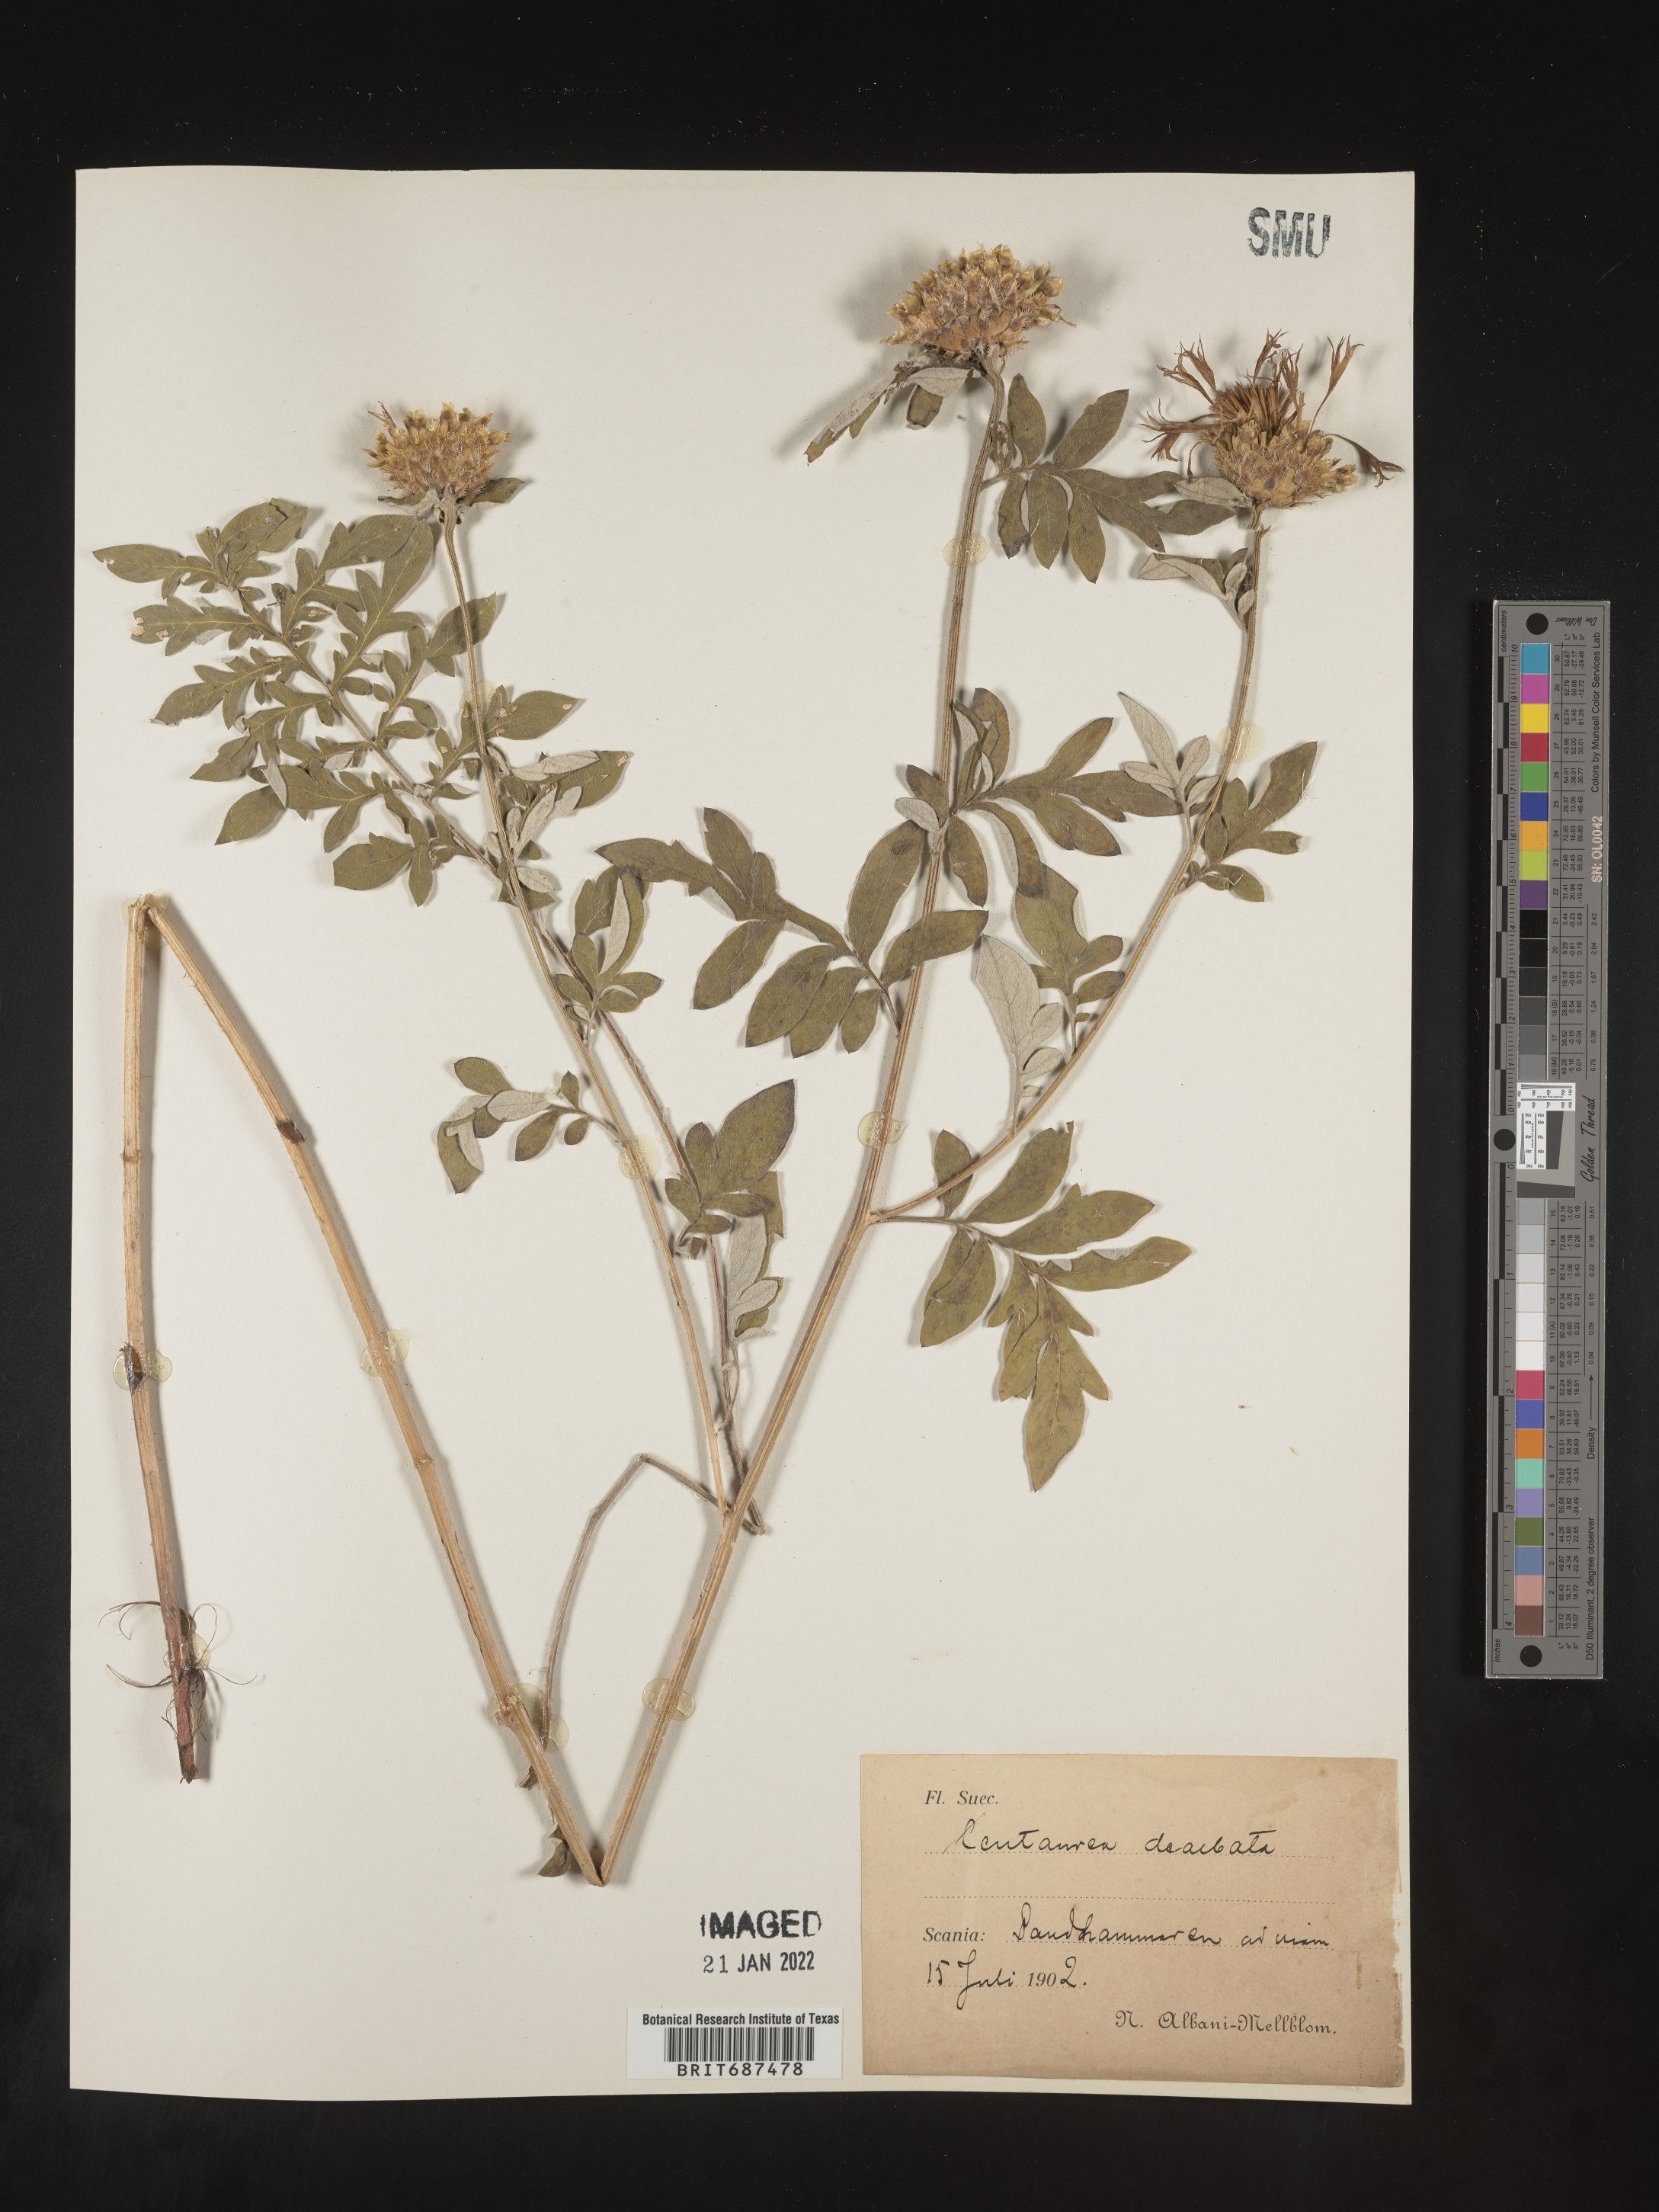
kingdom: Plantae
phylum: Tracheophyta
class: Magnoliopsida
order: Asterales
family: Asteraceae
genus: Centaurea
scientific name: Centaurea
